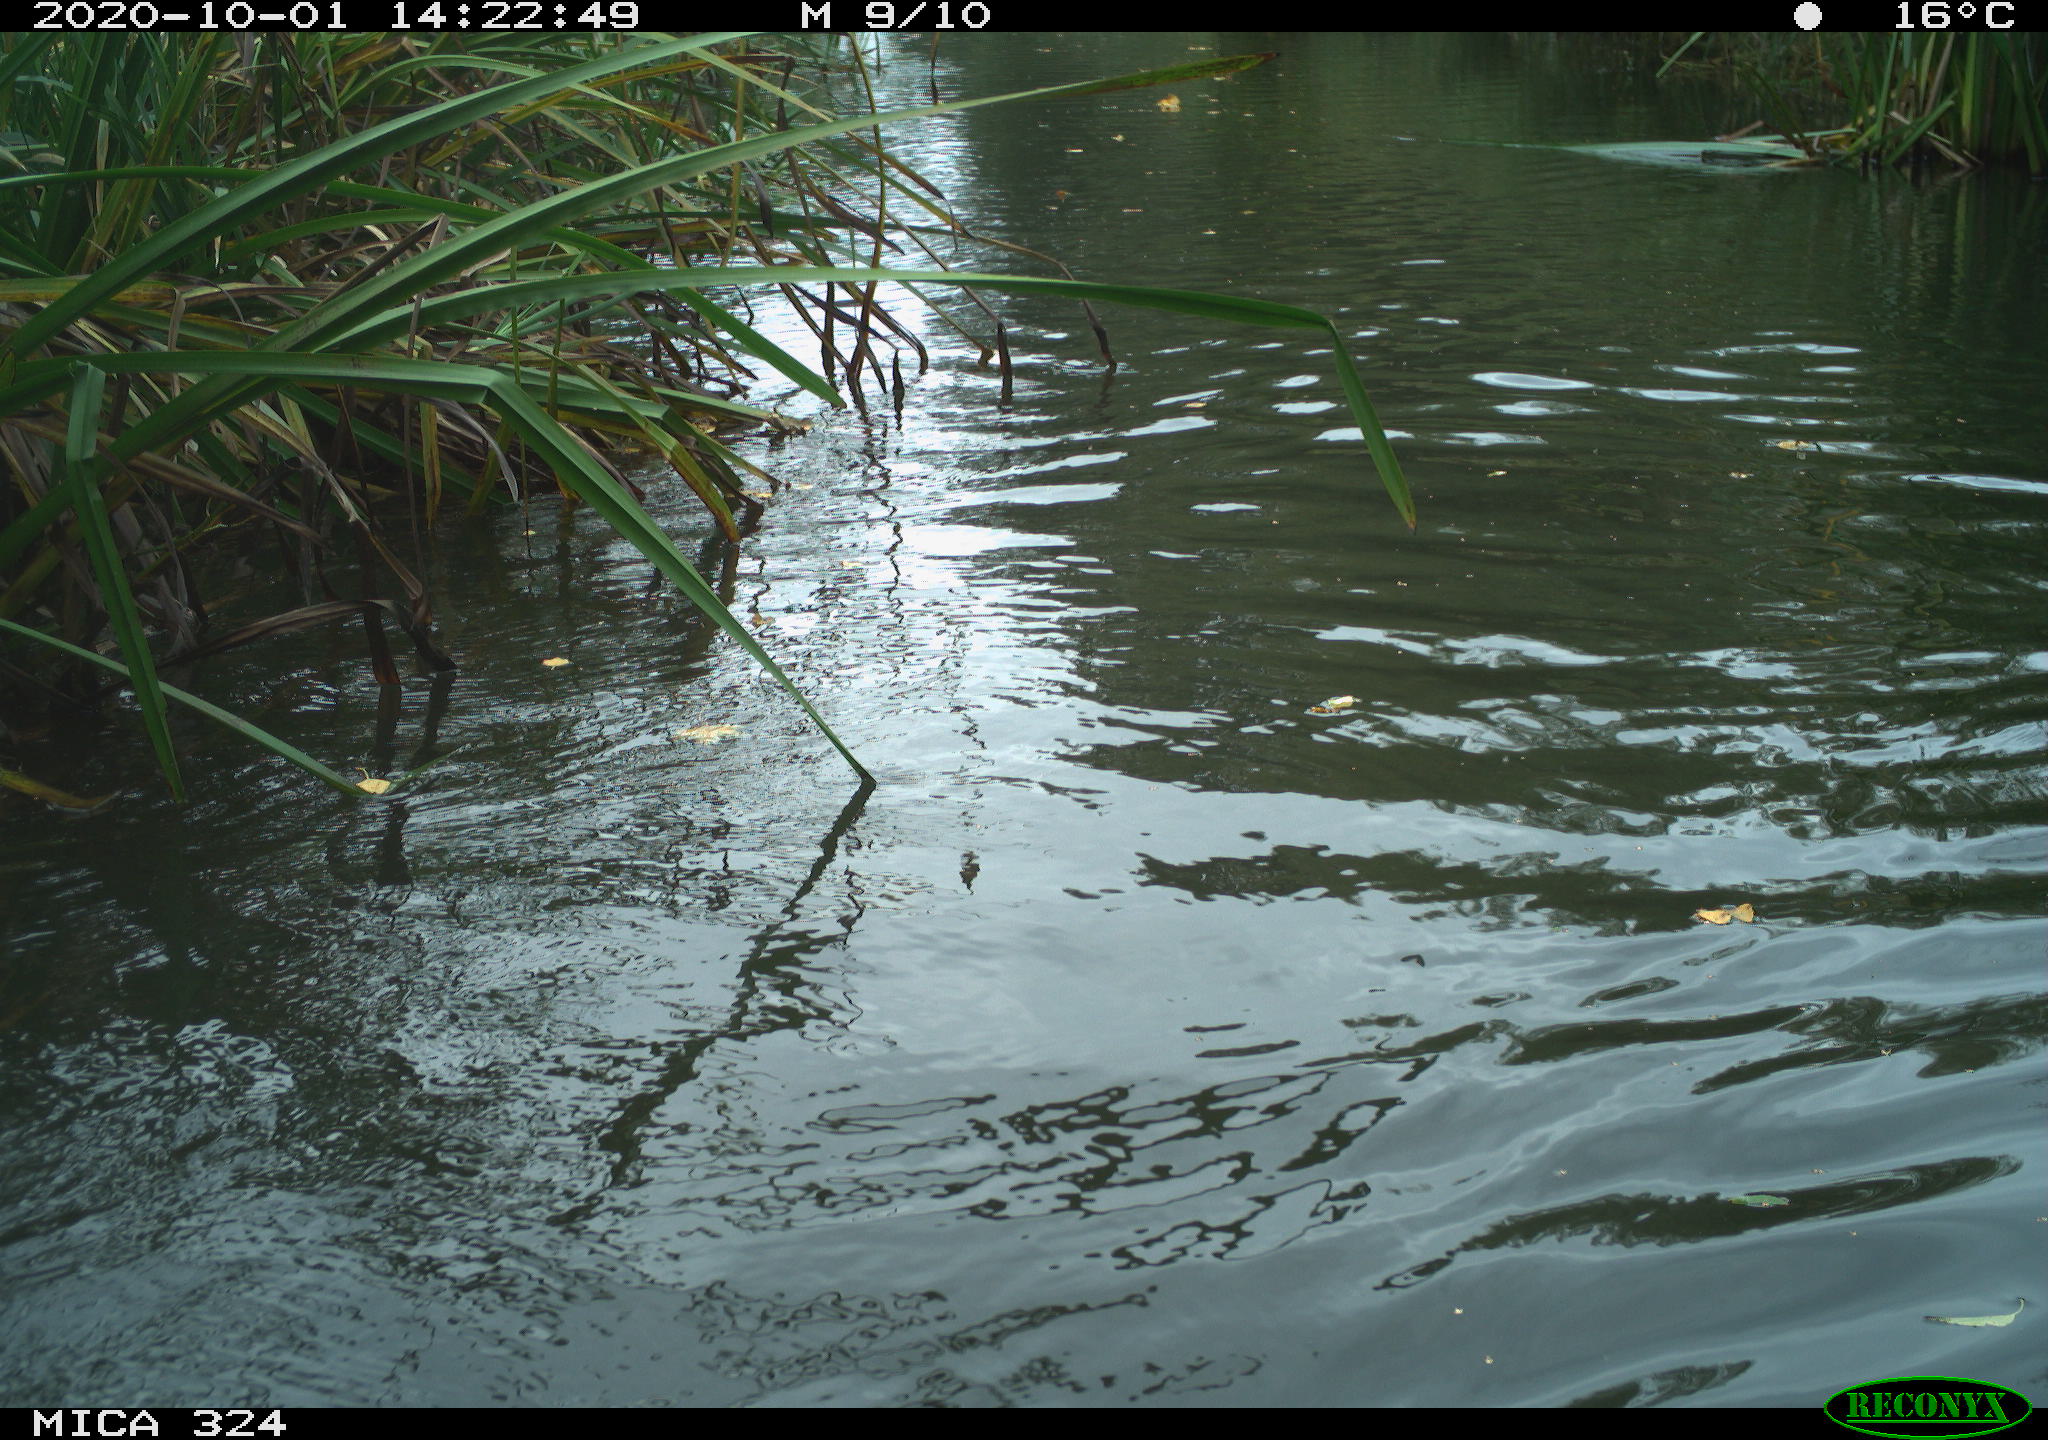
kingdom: Animalia
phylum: Chordata
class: Mammalia
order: Rodentia
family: Cricetidae
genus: Ondatra
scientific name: Ondatra zibethicus
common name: Muskrat
